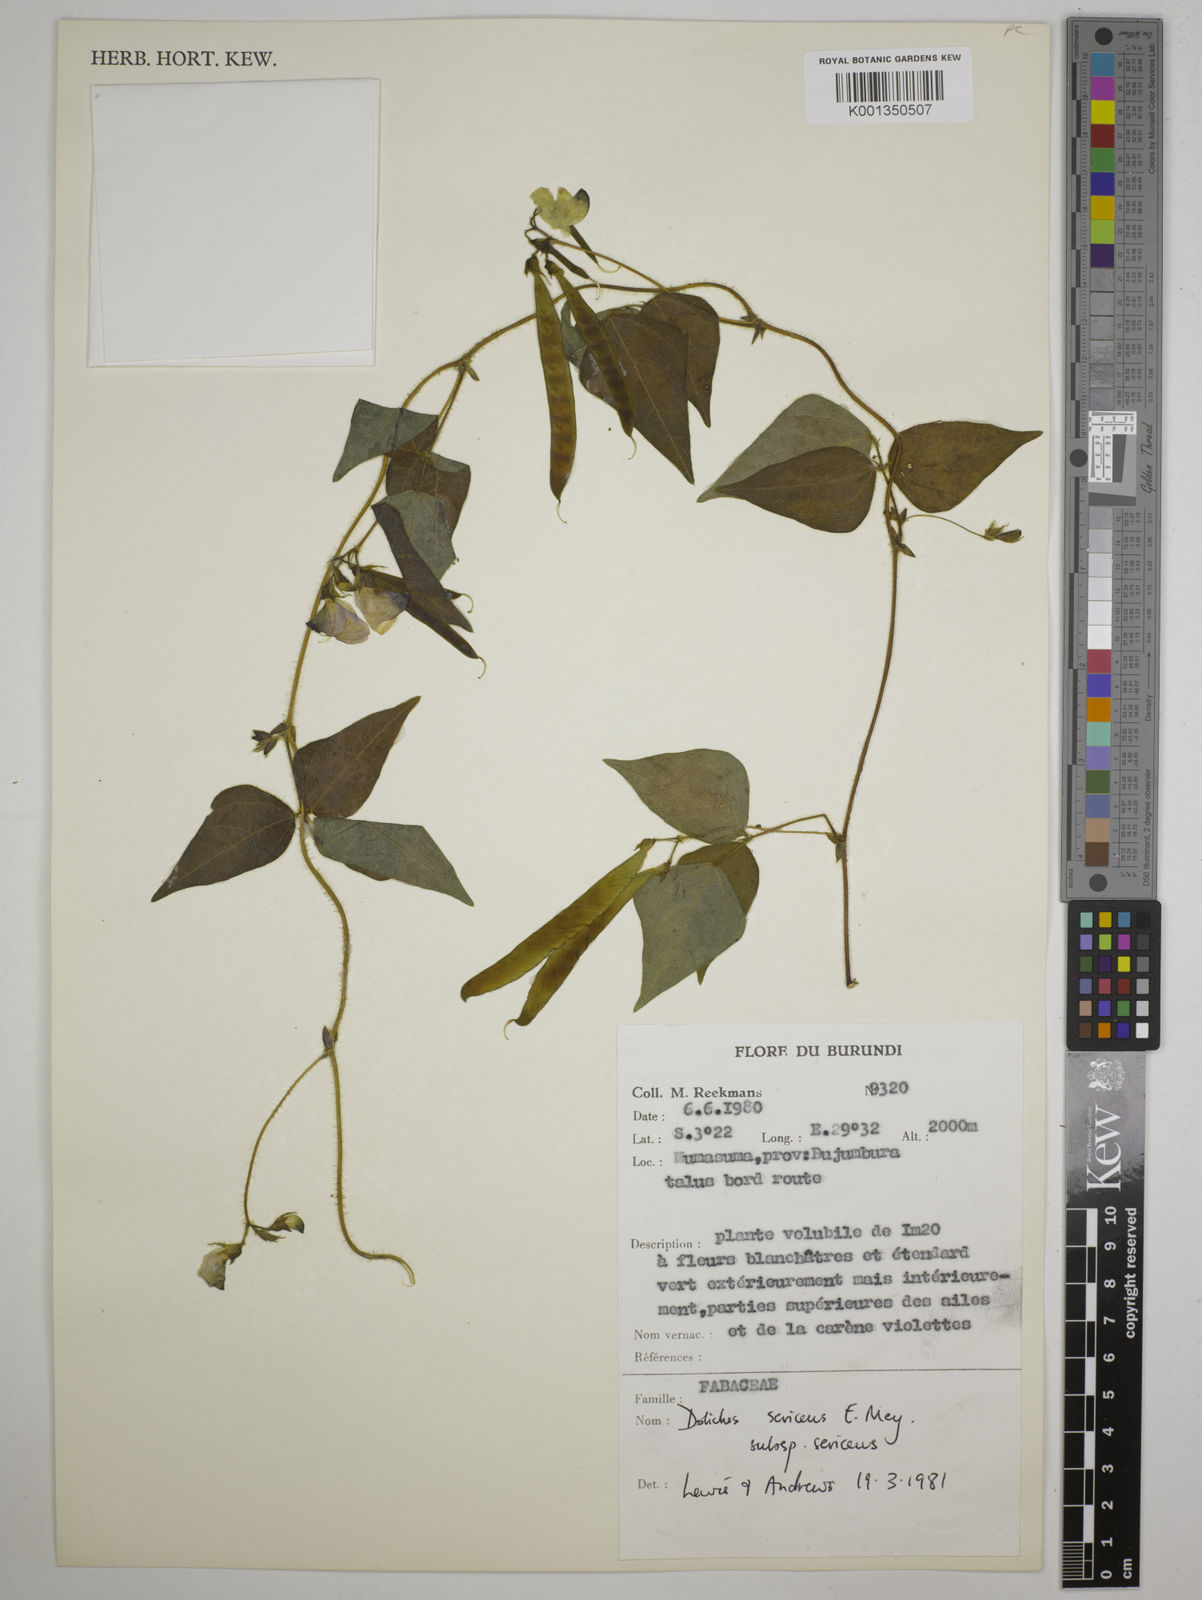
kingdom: Plantae
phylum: Tracheophyta
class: Magnoliopsida
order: Fabales
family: Fabaceae
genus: Dolichos
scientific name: Dolichos sericeus
